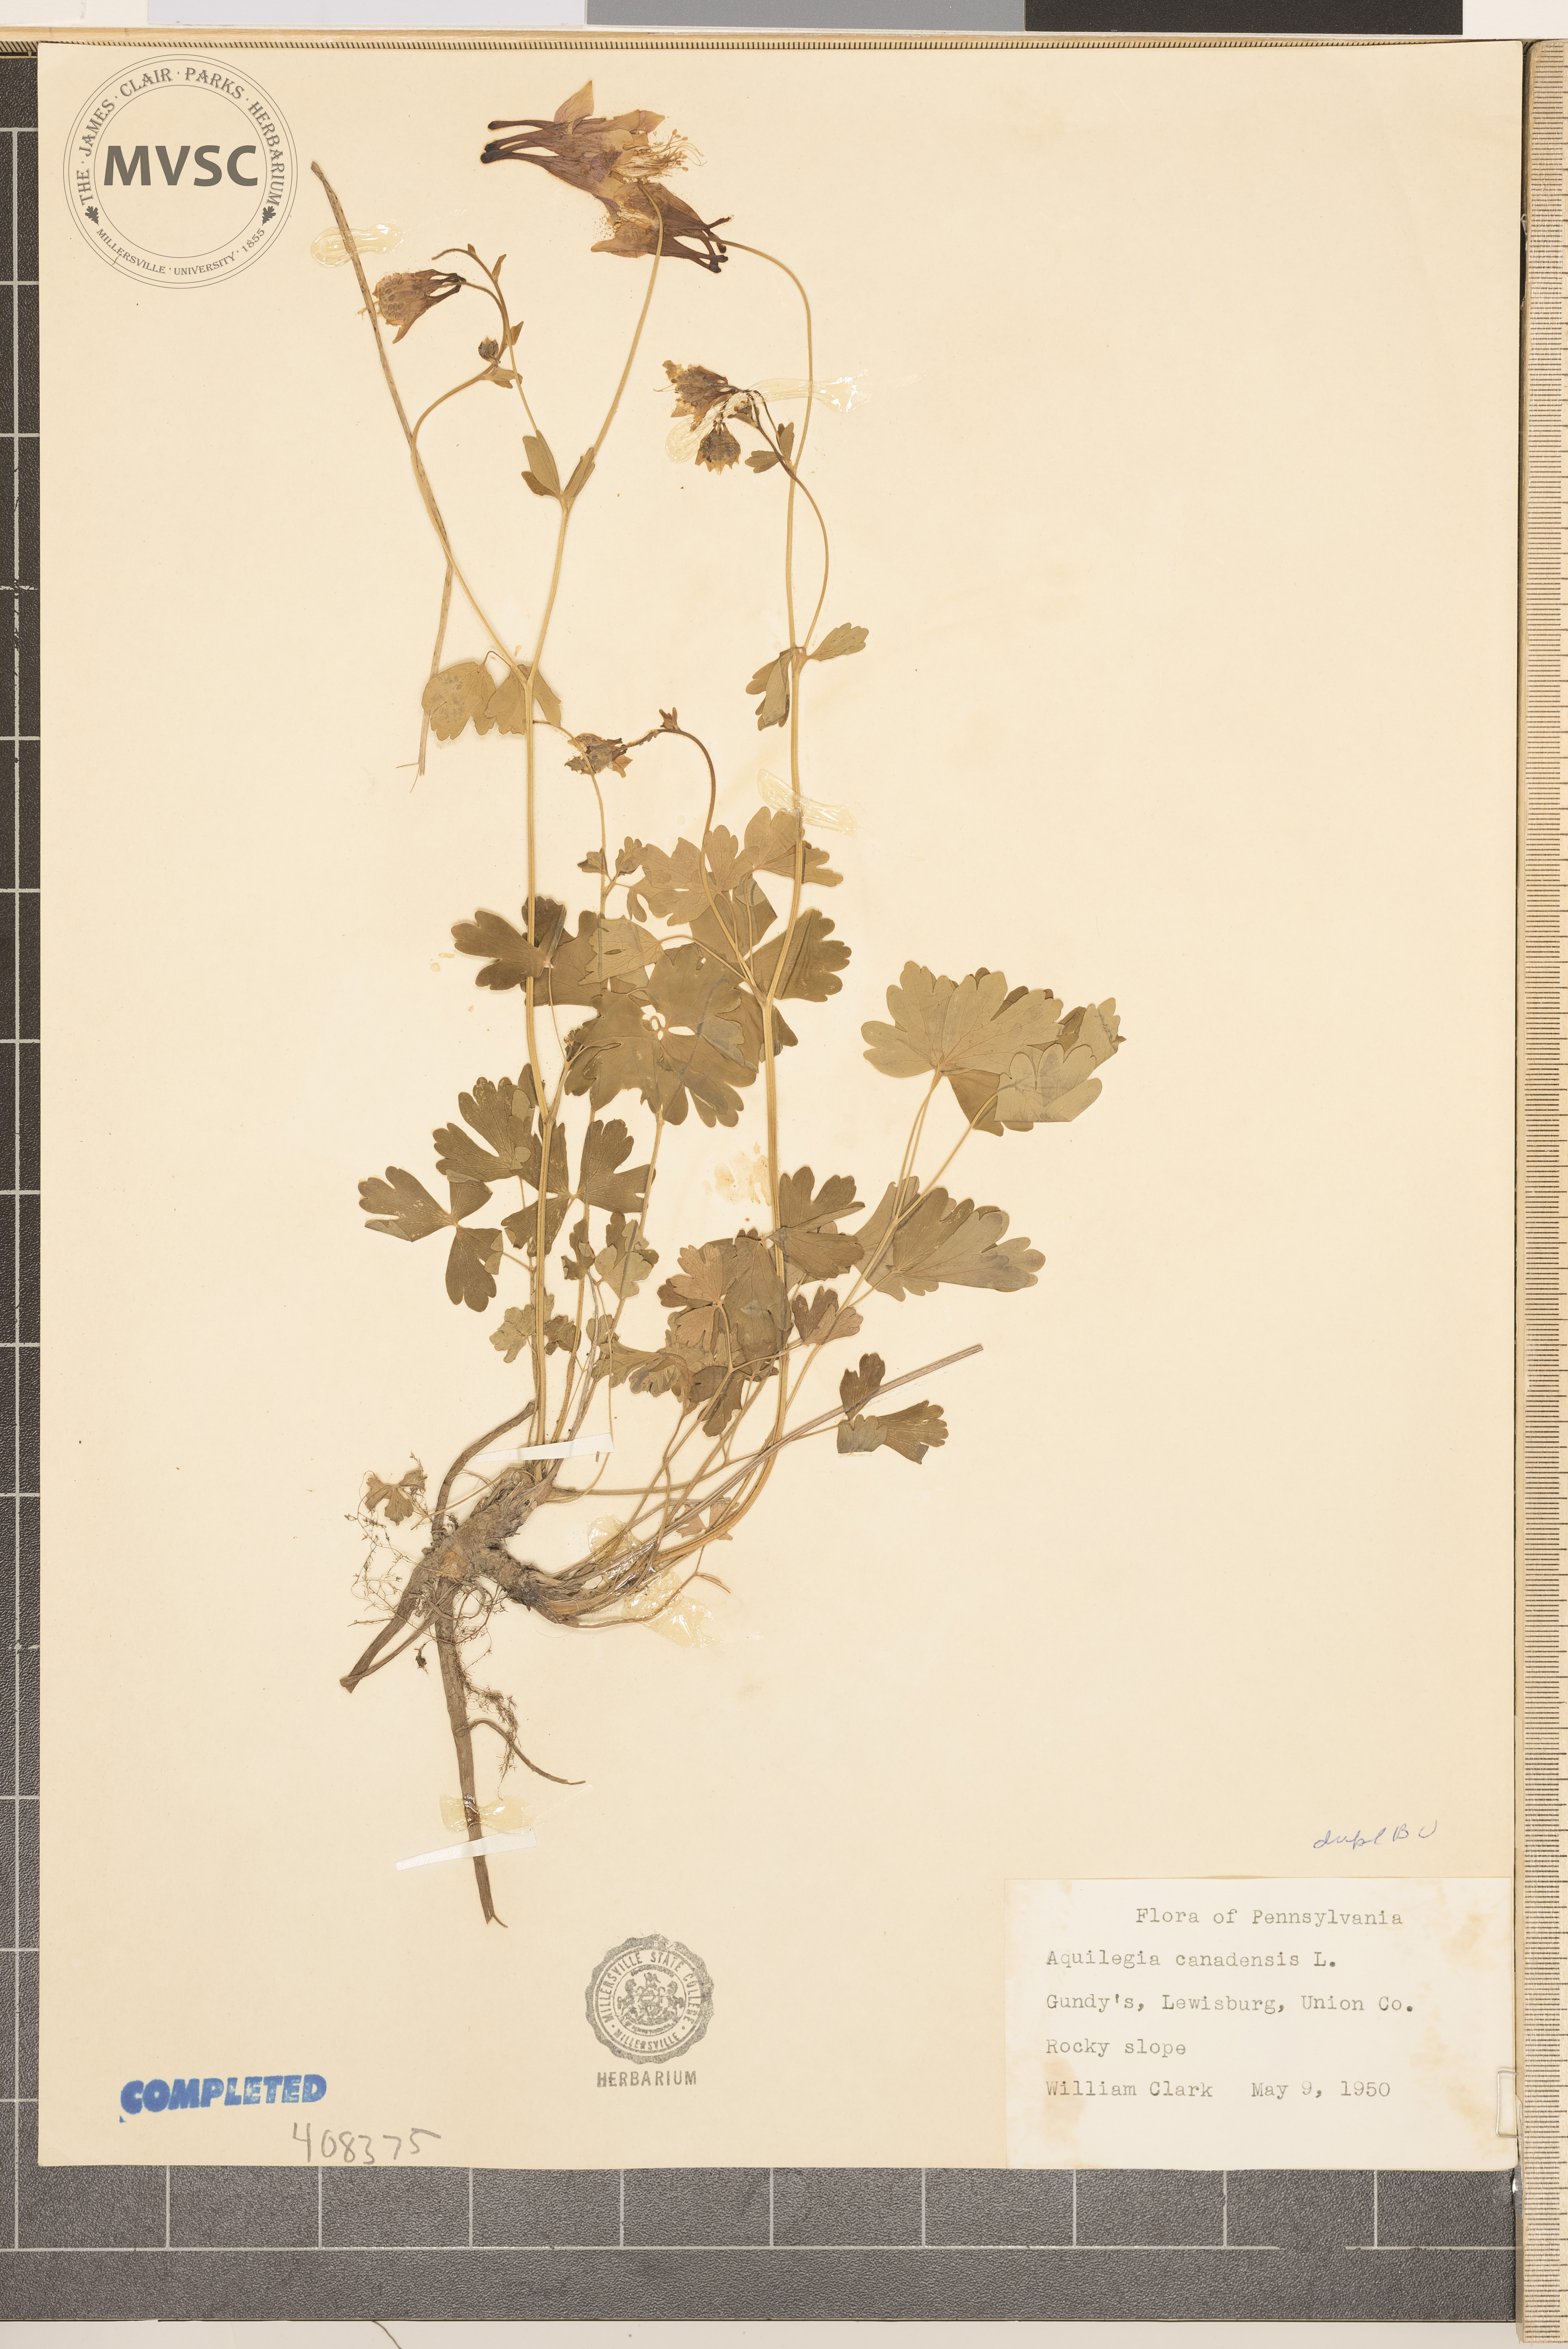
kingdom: Plantae
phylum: Tracheophyta
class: Magnoliopsida
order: Ranunculales
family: Ranunculaceae
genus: Aquilegia
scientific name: Aquilegia canadensis
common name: American columbine
